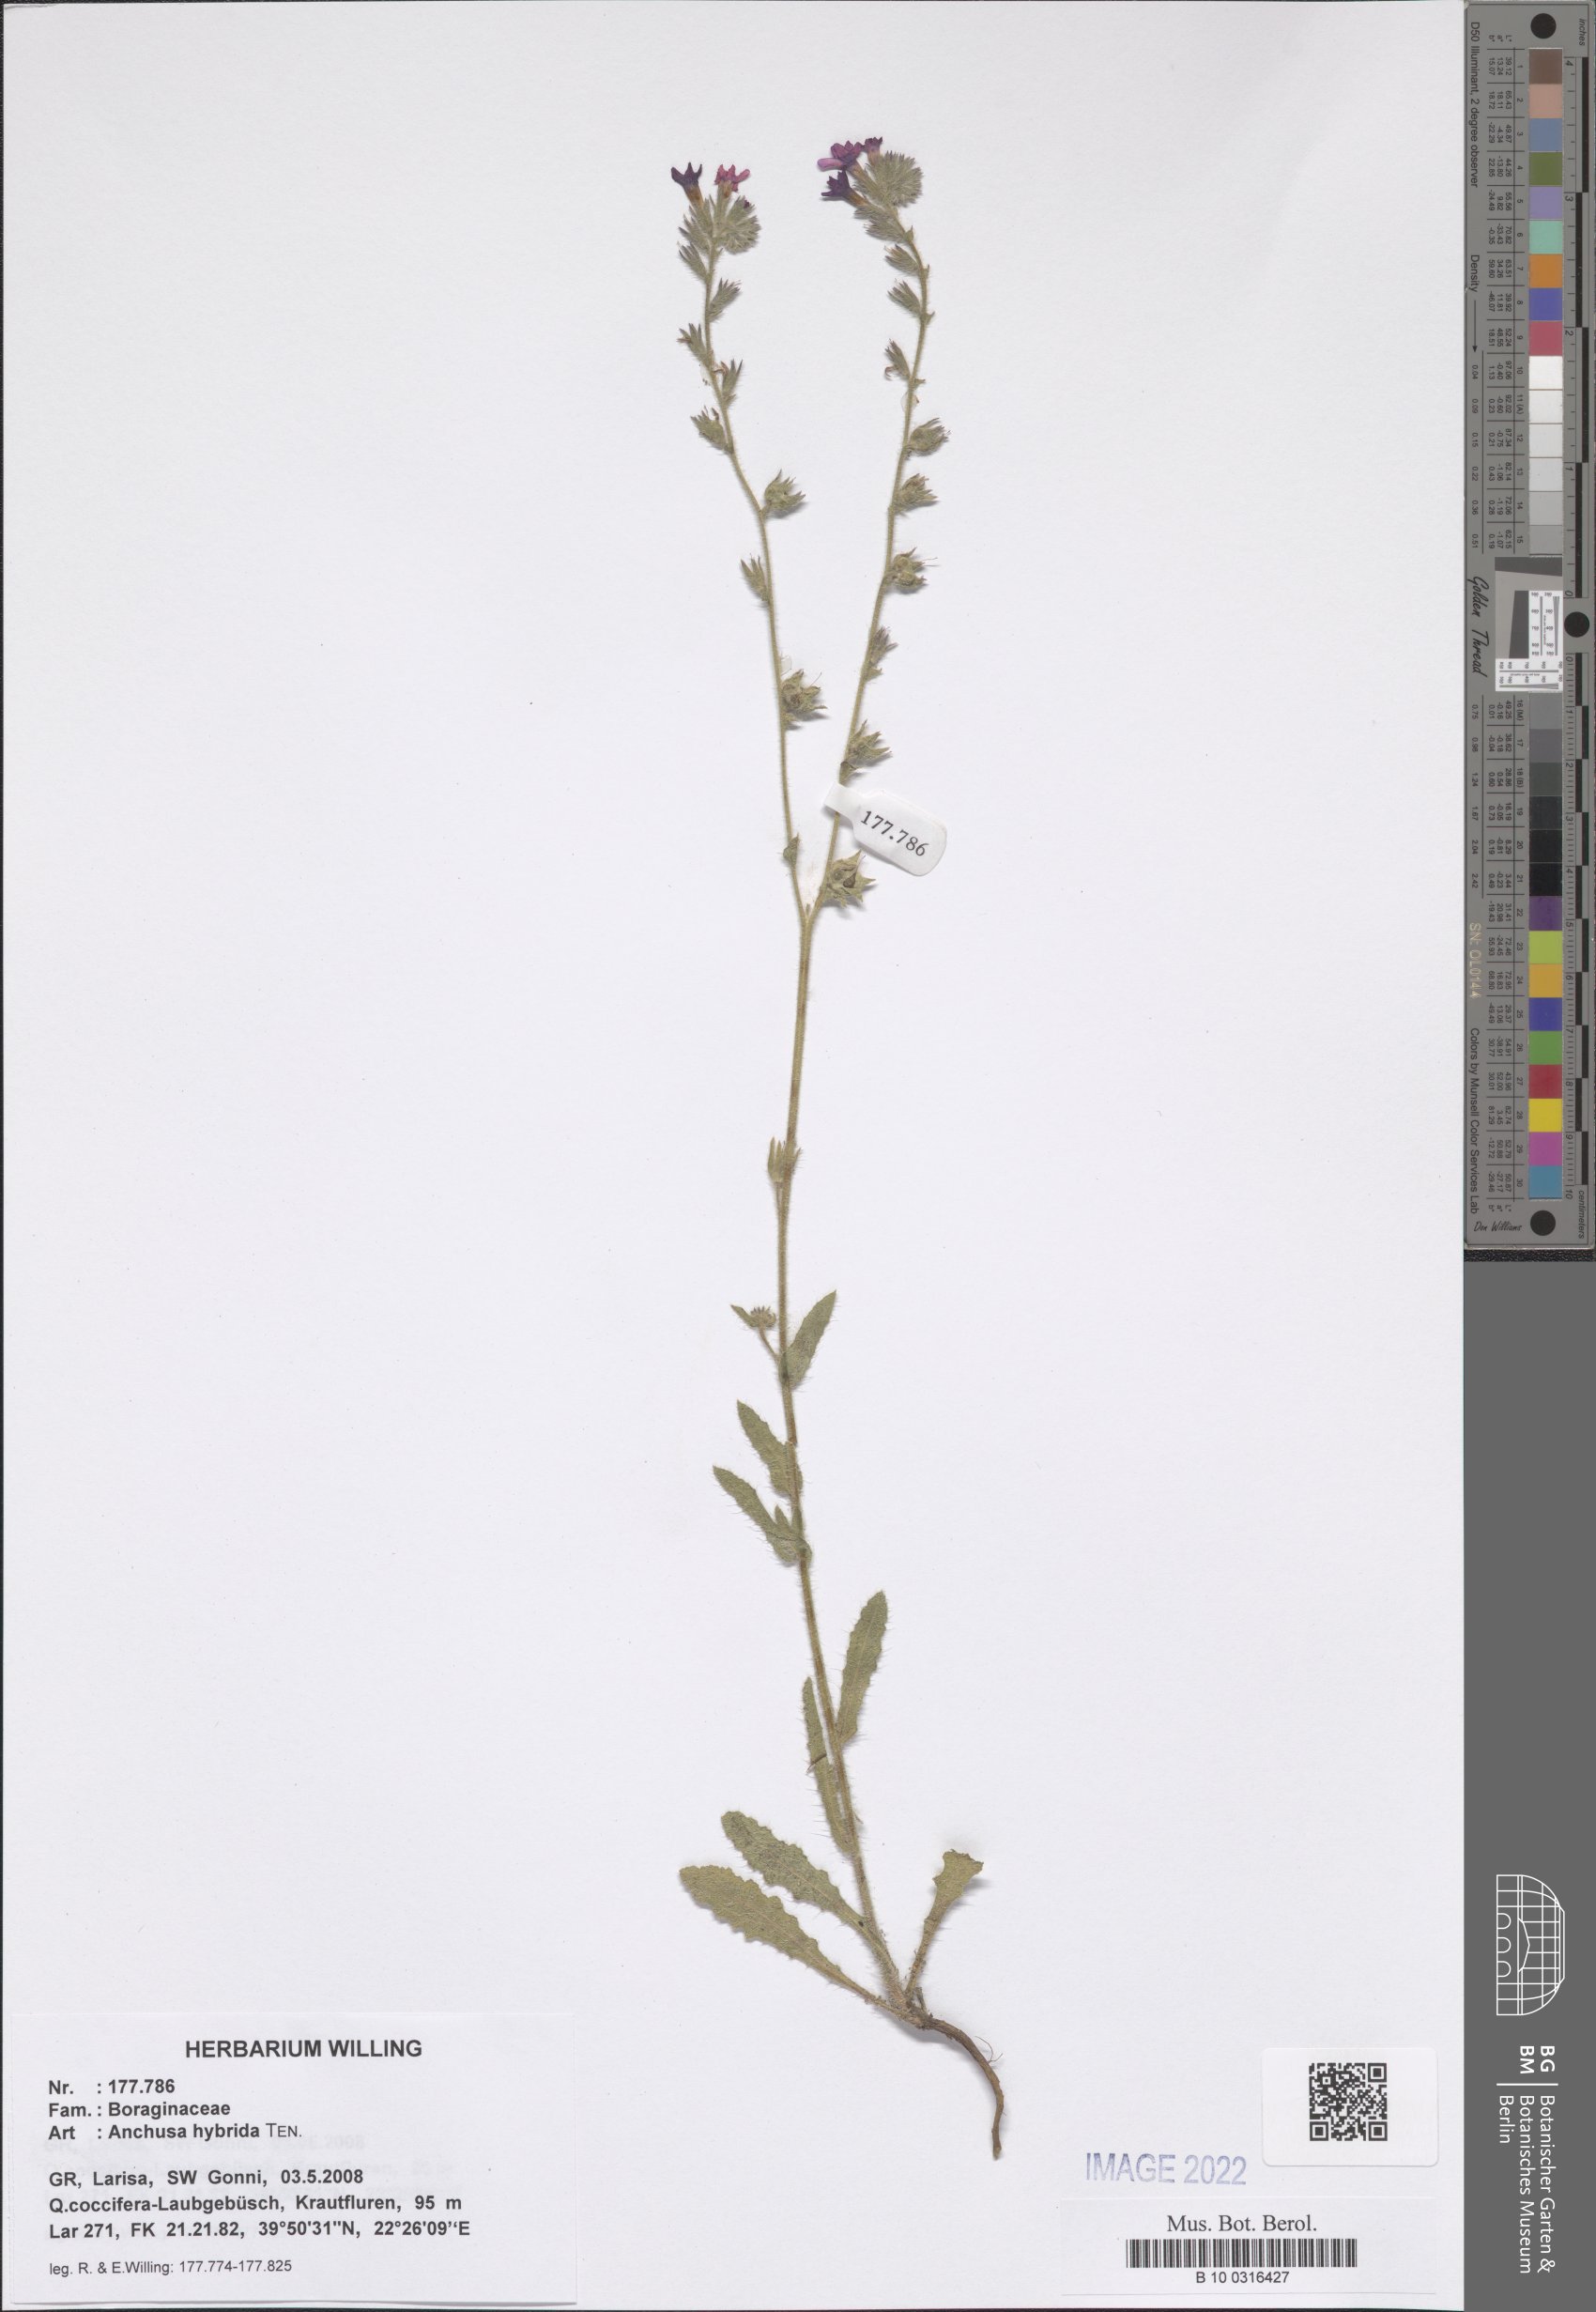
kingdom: Plantae
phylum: Tracheophyta
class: Magnoliopsida
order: Boraginales
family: Boraginaceae
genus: Anchusa
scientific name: Anchusa hybrida
